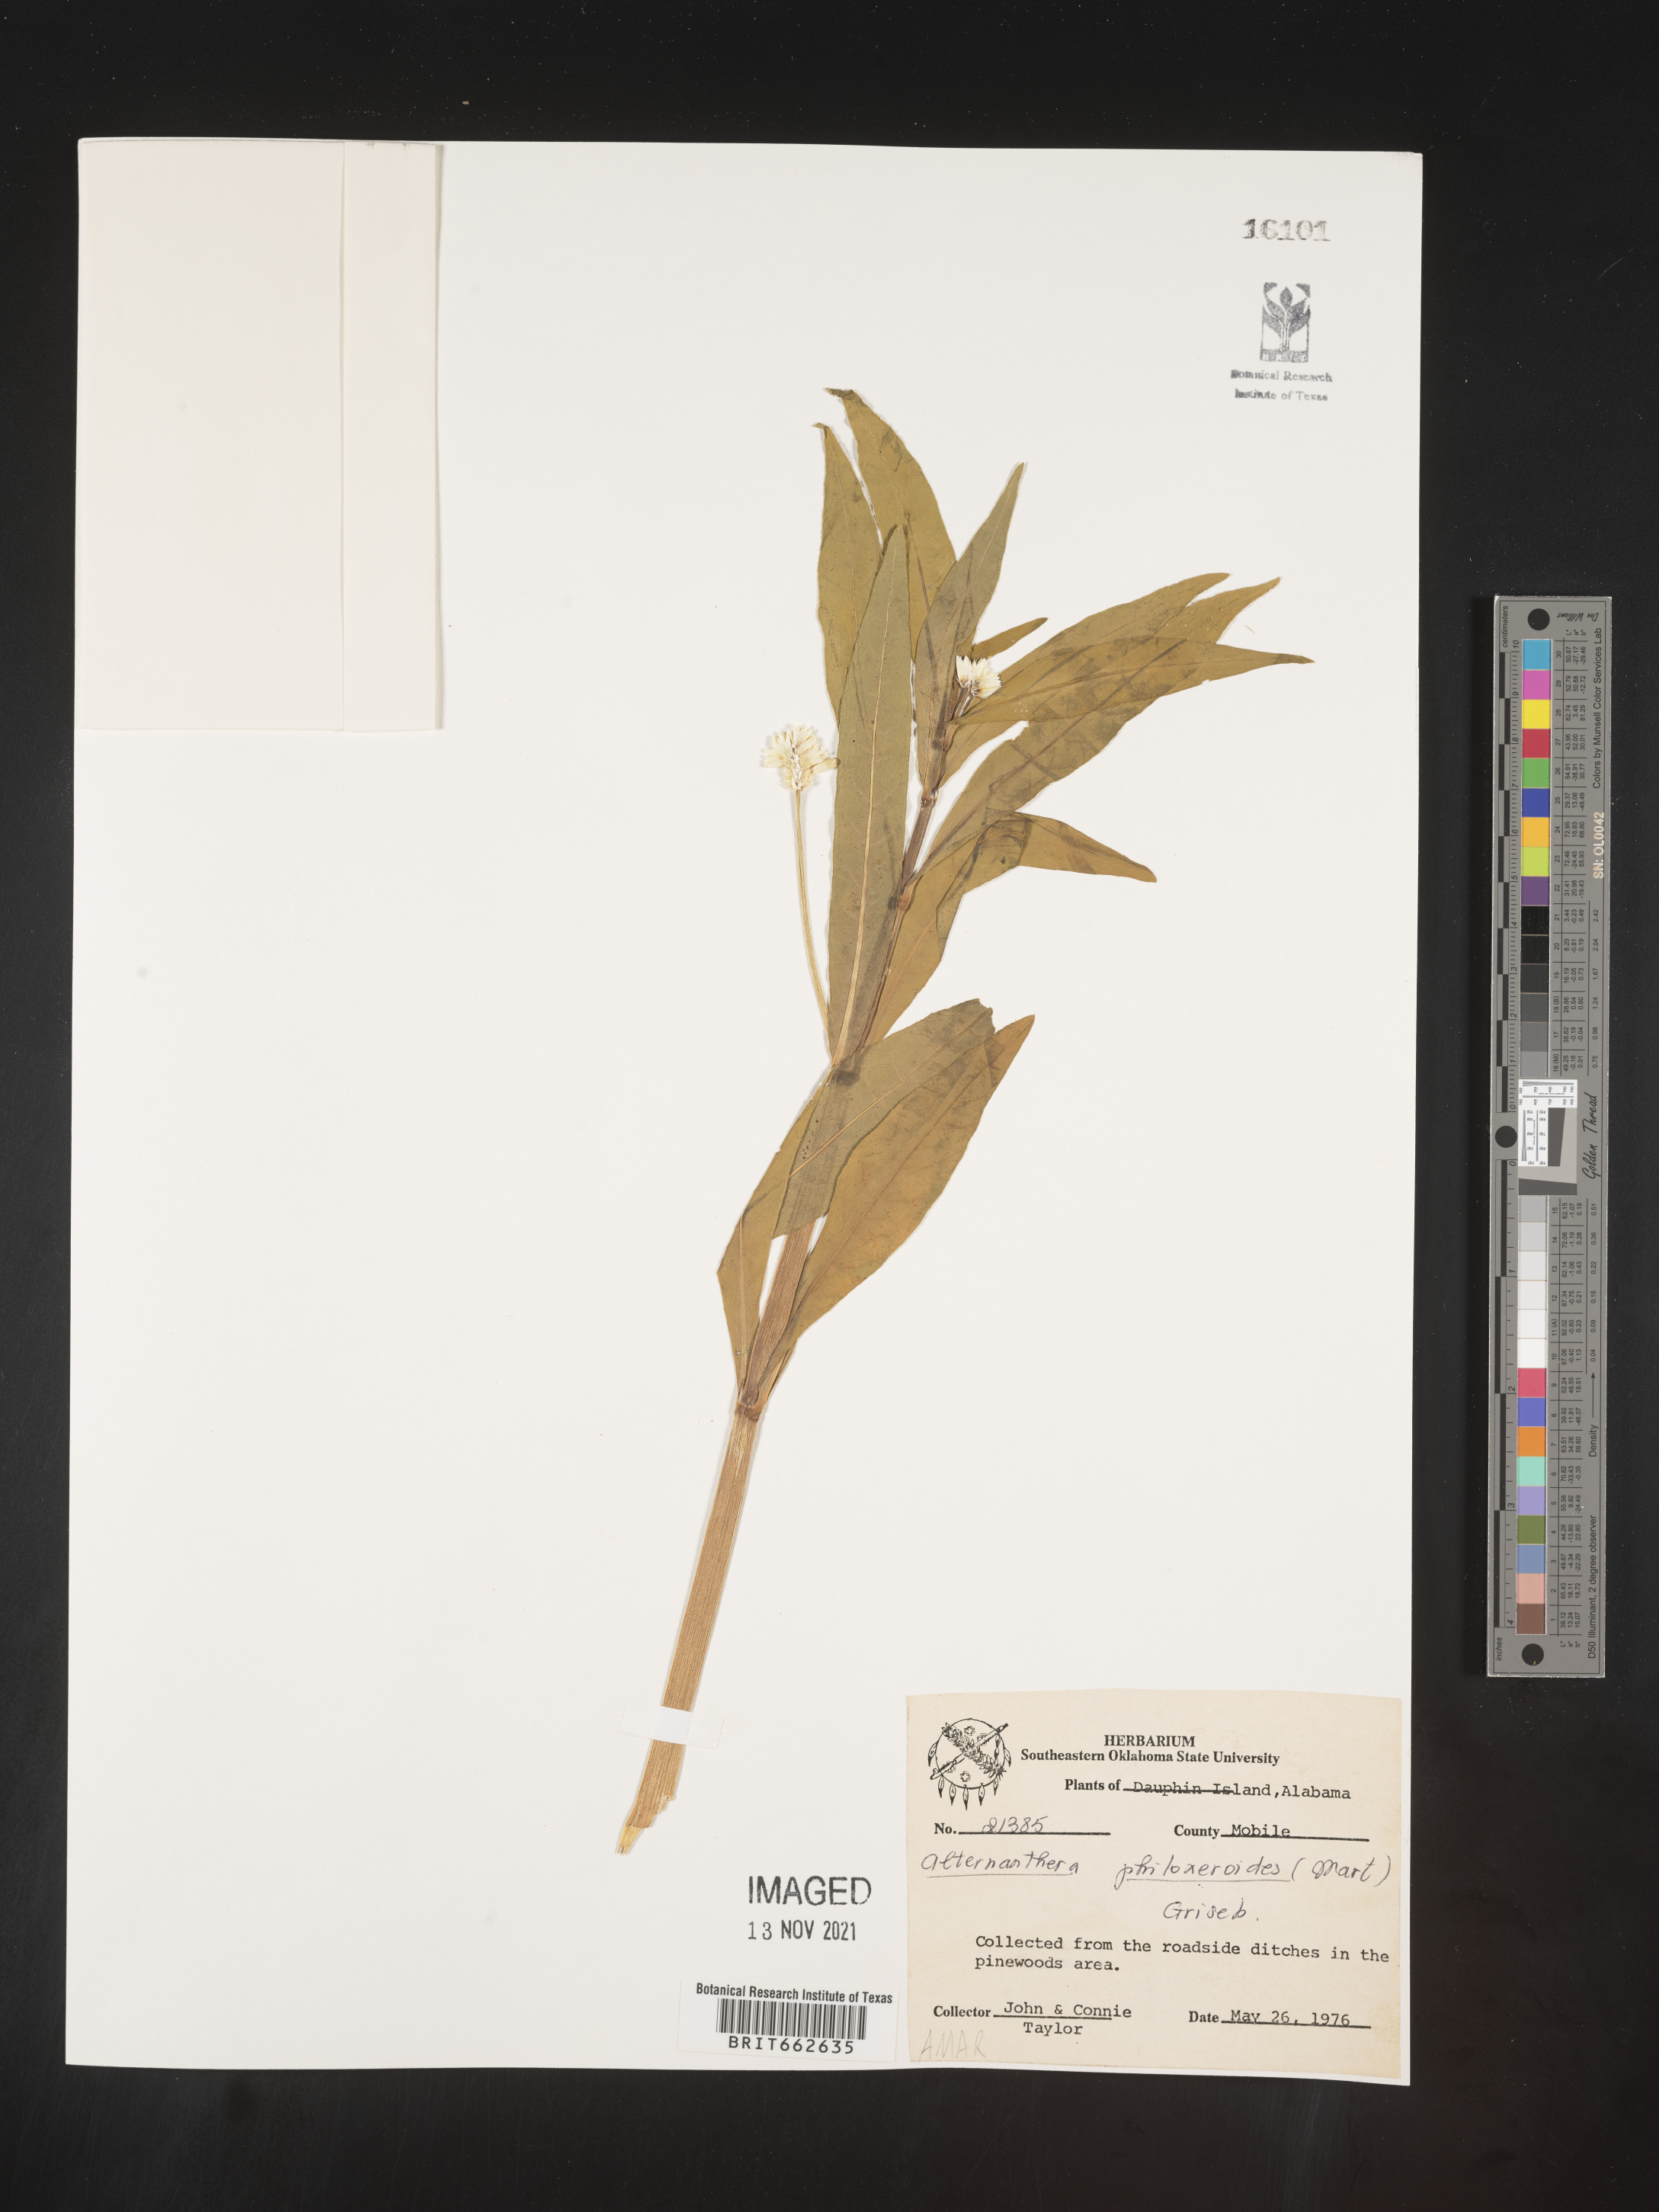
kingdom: Plantae
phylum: Tracheophyta
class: Magnoliopsida
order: Caryophyllales
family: Amaranthaceae
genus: Alternanthera
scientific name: Alternanthera philoxeroides
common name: Alligatorweed
